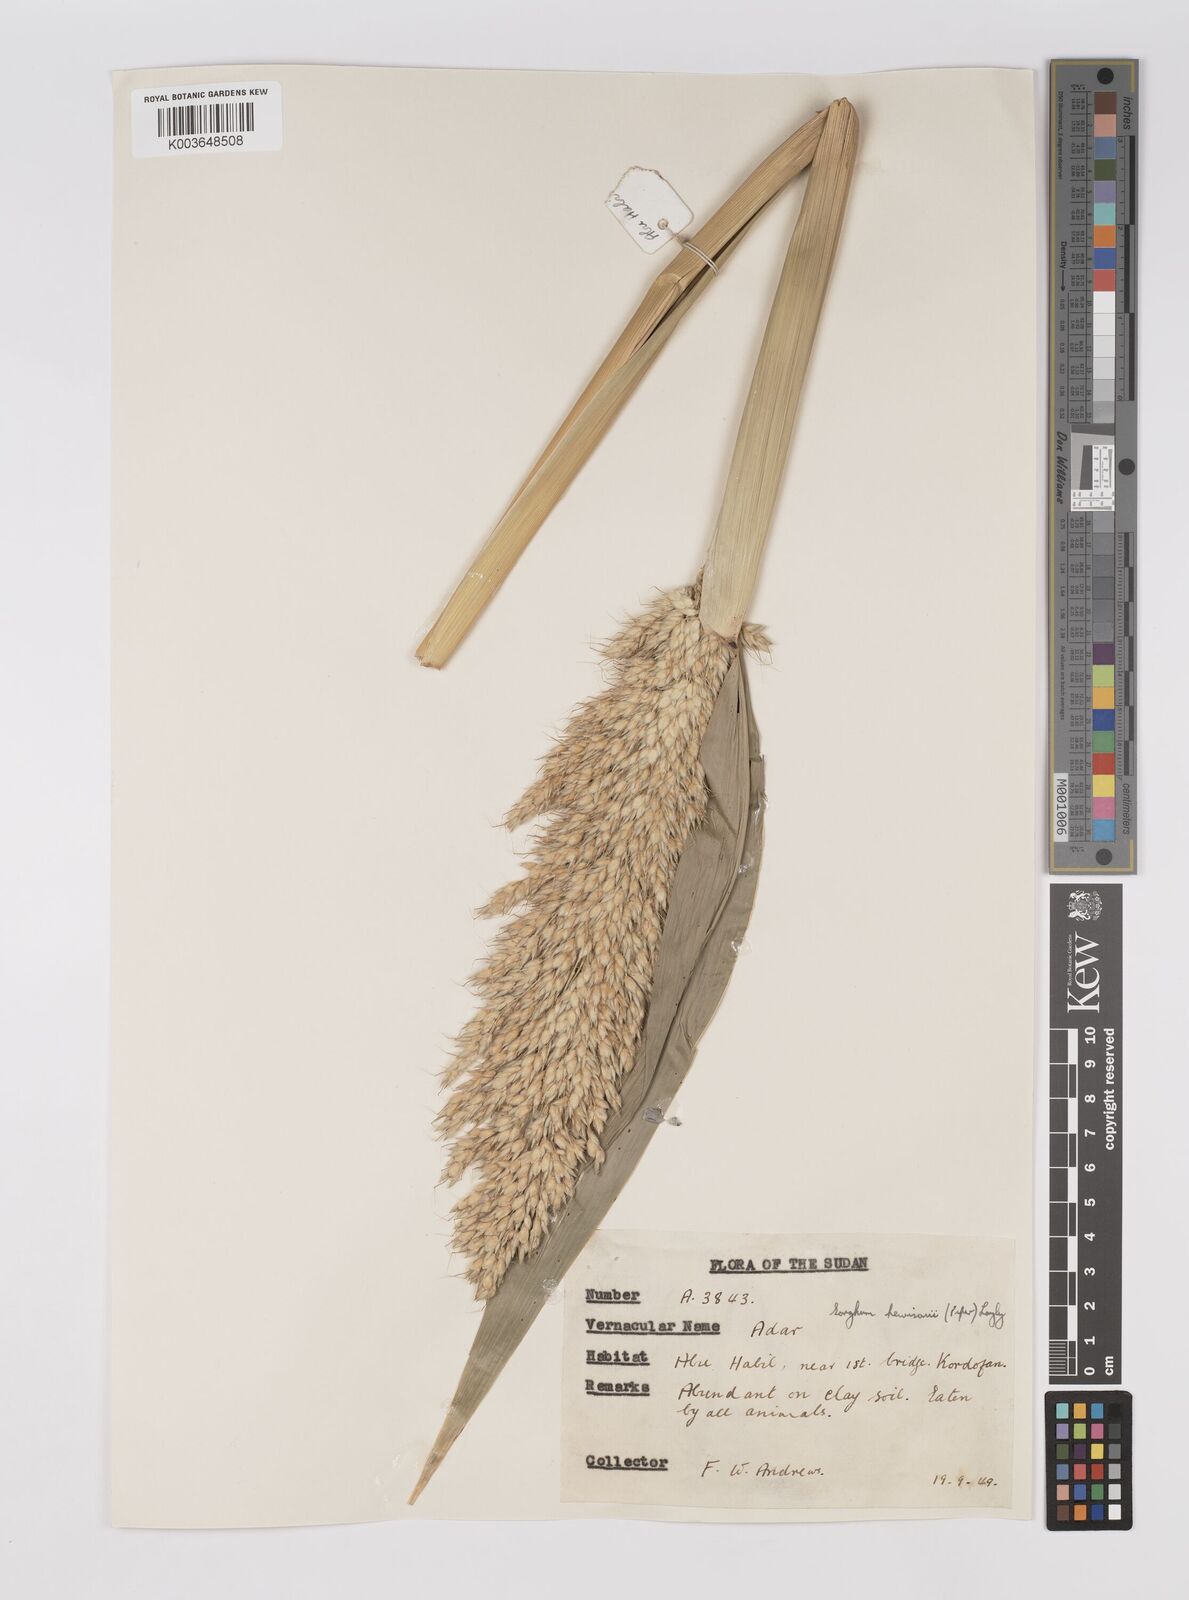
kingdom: Plantae
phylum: Tracheophyta
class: Liliopsida
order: Poales
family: Poaceae
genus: Sorghum
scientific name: Sorghum drummondii
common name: Sudangrass
